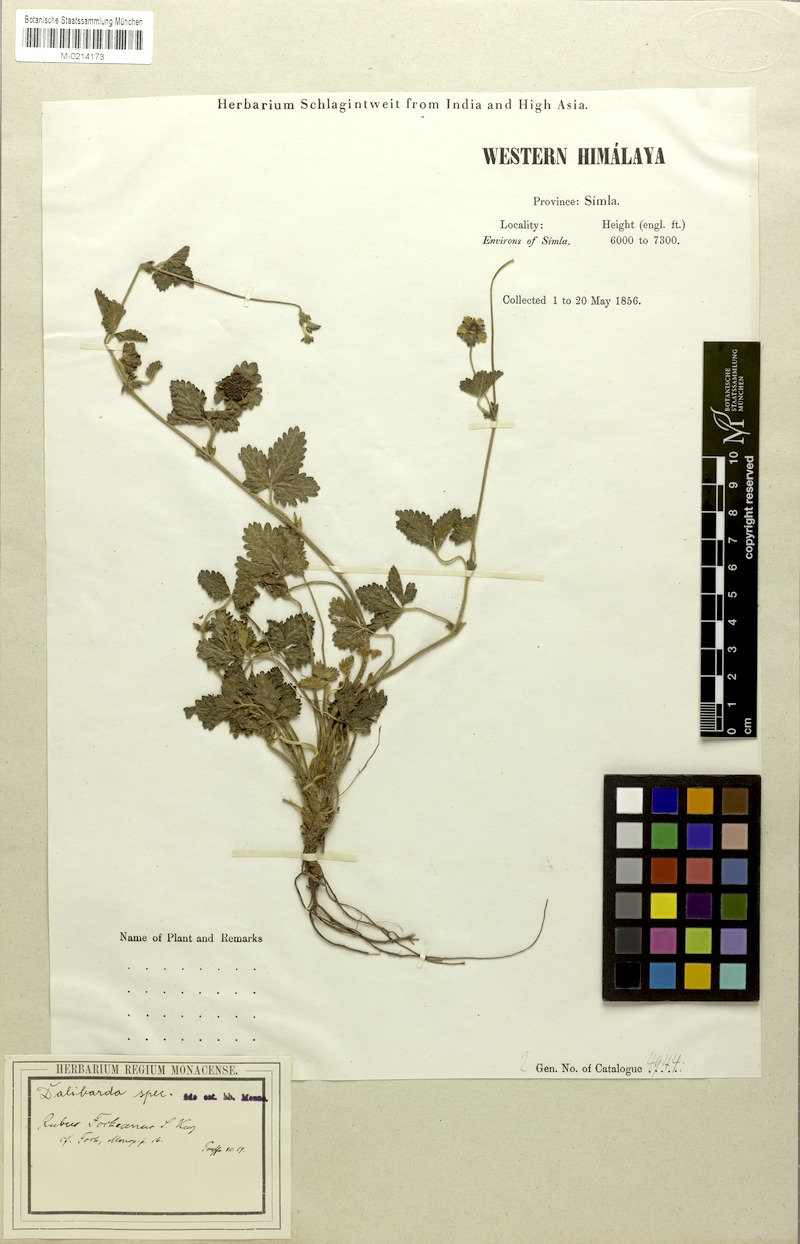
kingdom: Plantae
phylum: Tracheophyta
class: Magnoliopsida
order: Rosales
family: Rosaceae
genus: Potentilla
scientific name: Potentilla indica
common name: Yellow-flowered strawberry
